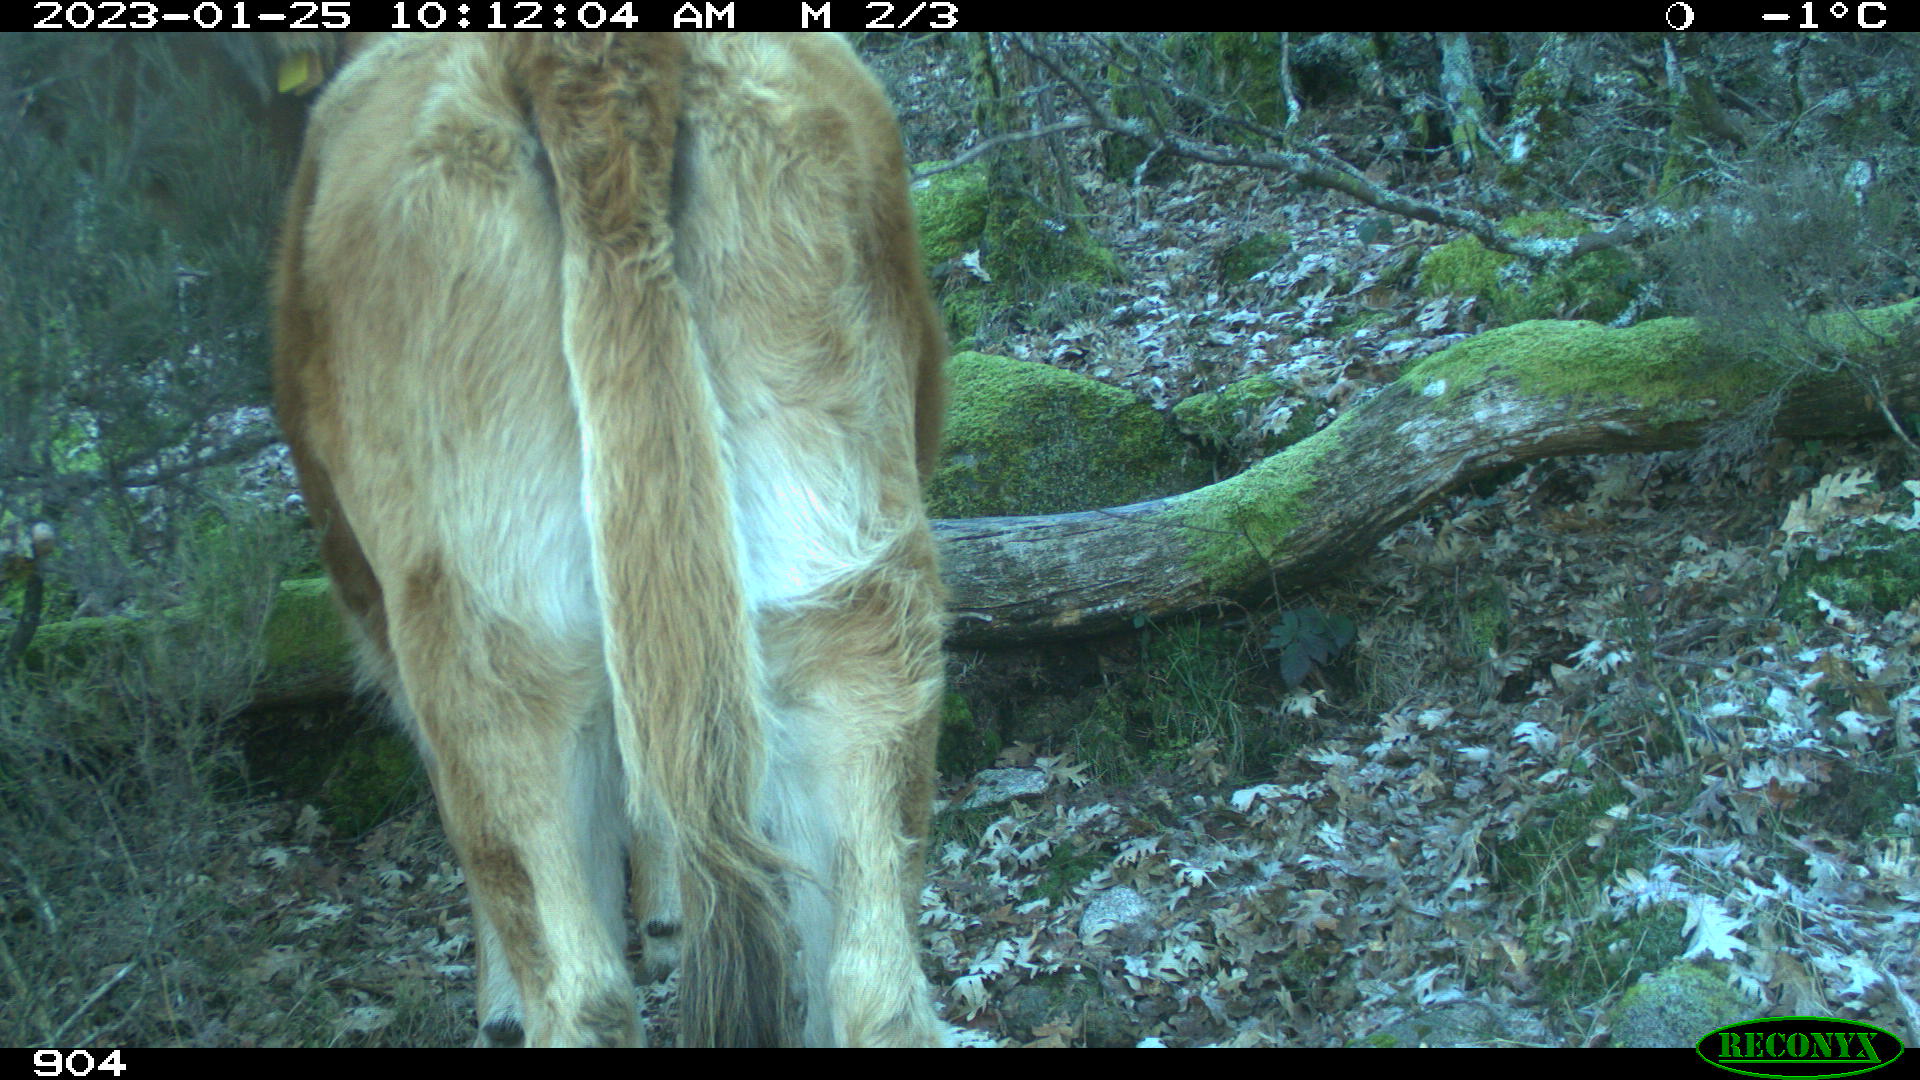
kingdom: Animalia
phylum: Chordata
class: Mammalia
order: Artiodactyla
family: Bovidae
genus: Bos
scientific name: Bos taurus
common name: Domesticated cattle
